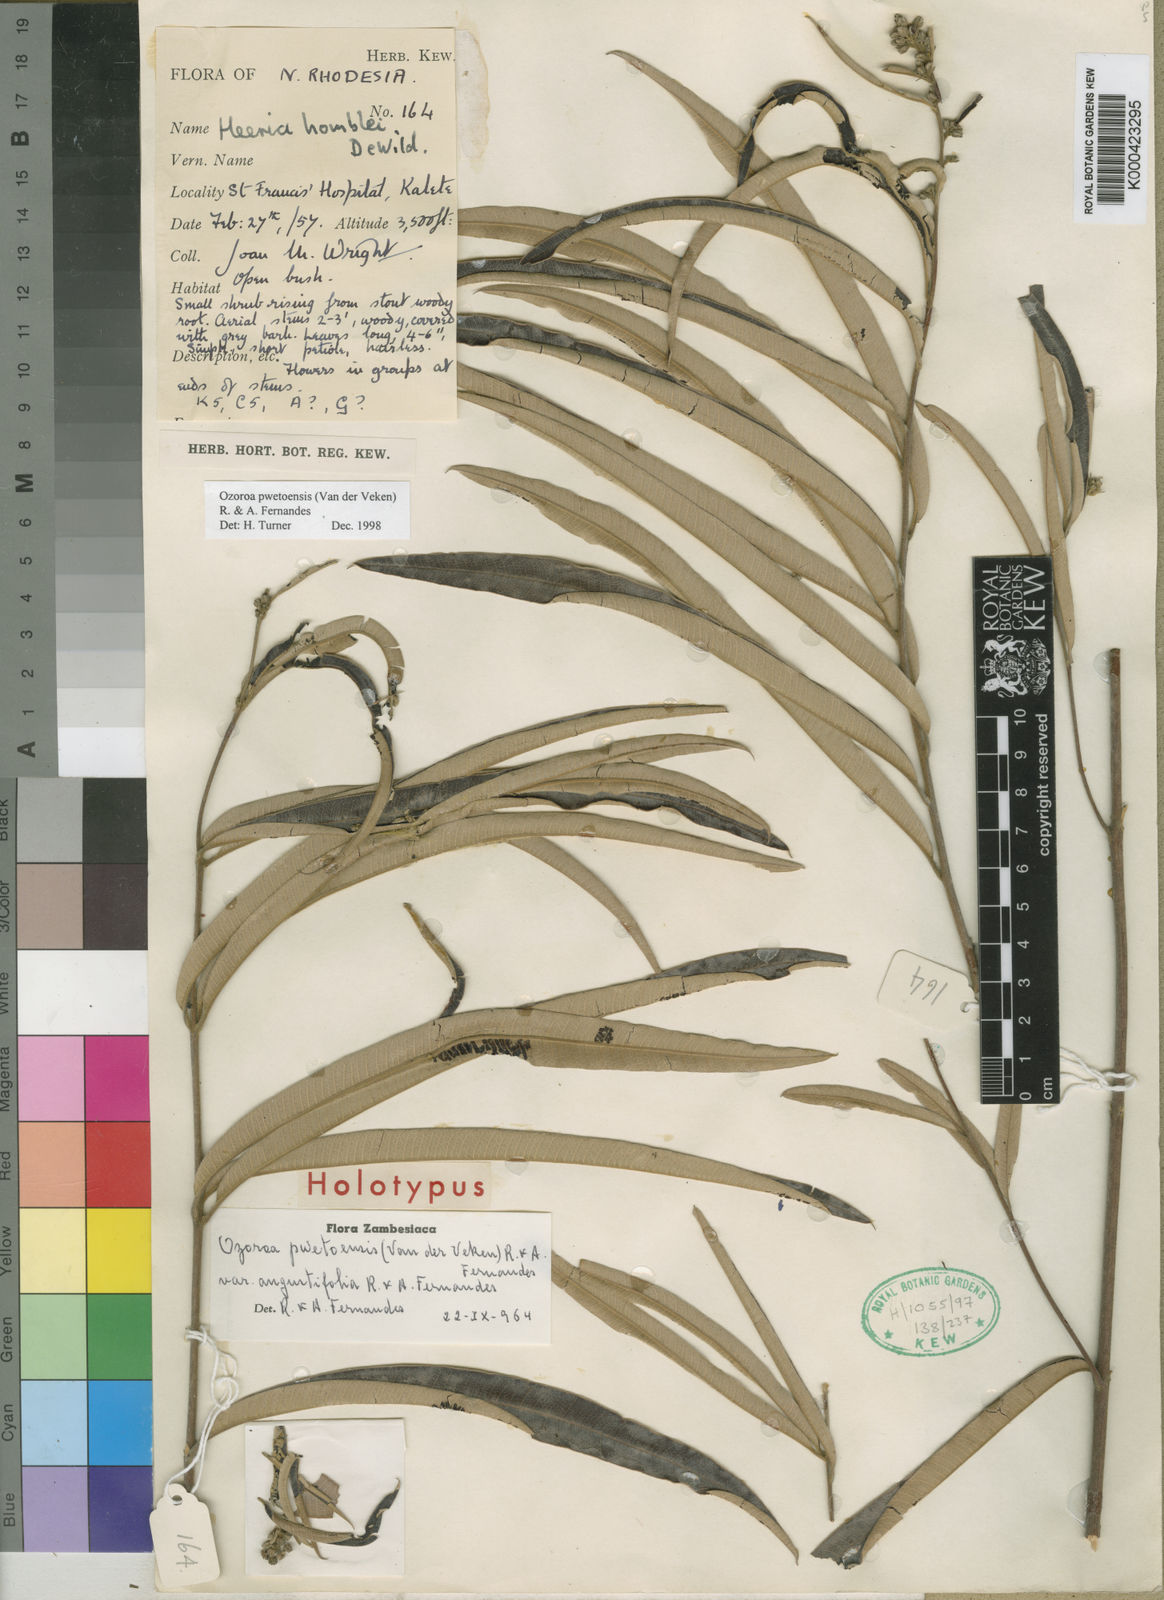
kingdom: Plantae
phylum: Tracheophyta
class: Magnoliopsida
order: Sapindales
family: Anacardiaceae
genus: Ozoroa
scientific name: Ozoroa pwetoensis
